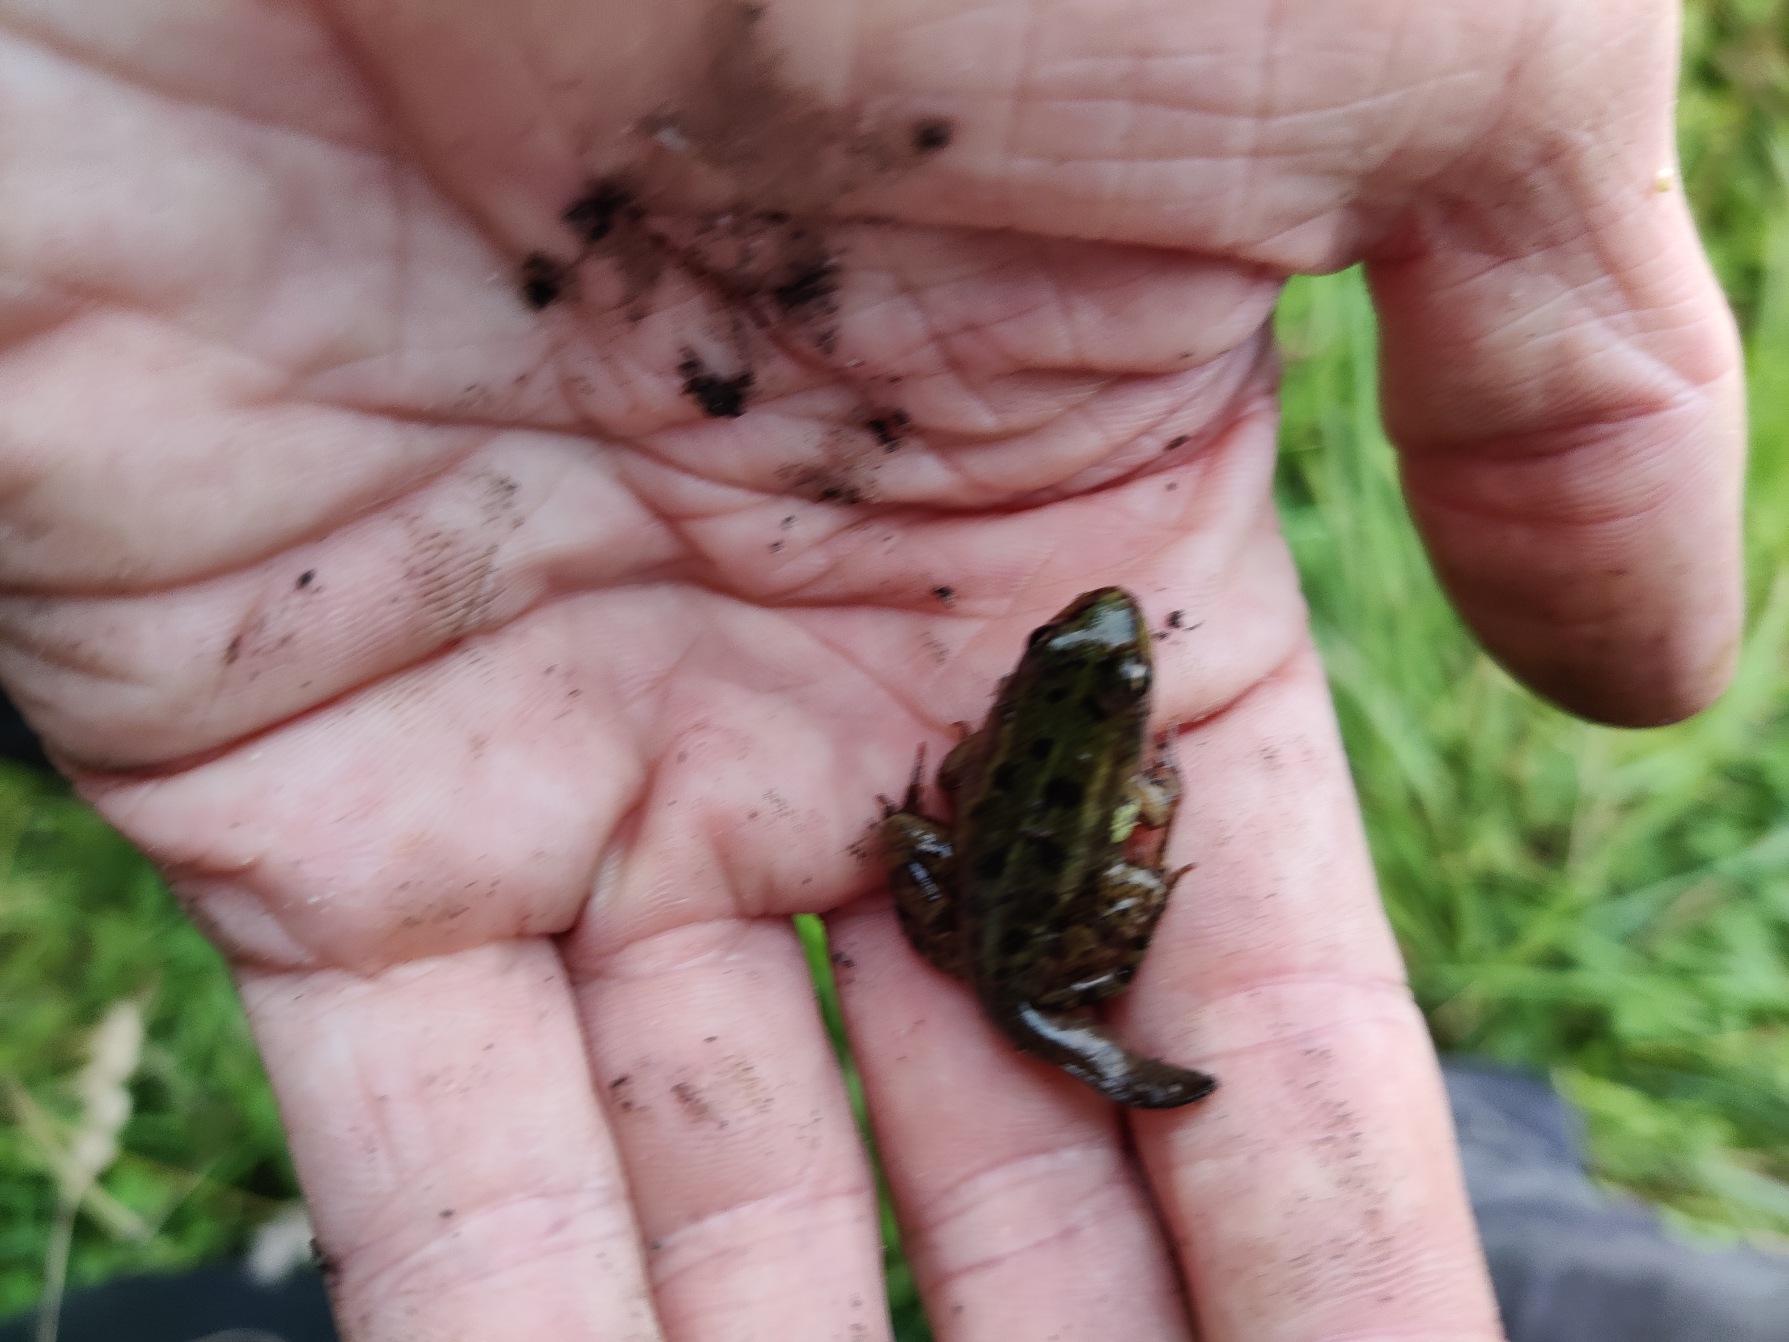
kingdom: Animalia
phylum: Chordata
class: Amphibia
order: Anura
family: Ranidae
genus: Pelophylax
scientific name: Pelophylax lessonae
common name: Grøn frø
